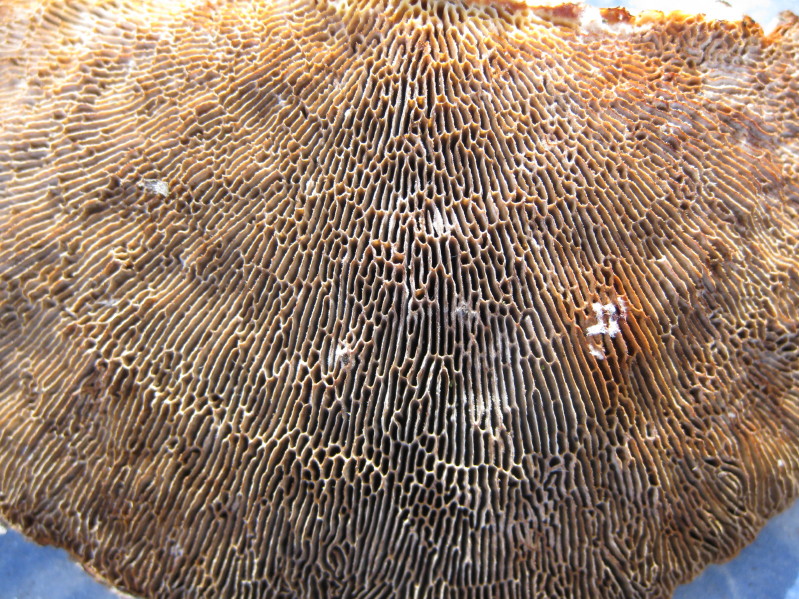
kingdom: Fungi
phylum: Basidiomycota
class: Agaricomycetes
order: Polyporales
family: Polyporaceae
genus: Daedaleopsis
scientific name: Daedaleopsis confragosa
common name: rødmende læderporesvamp
